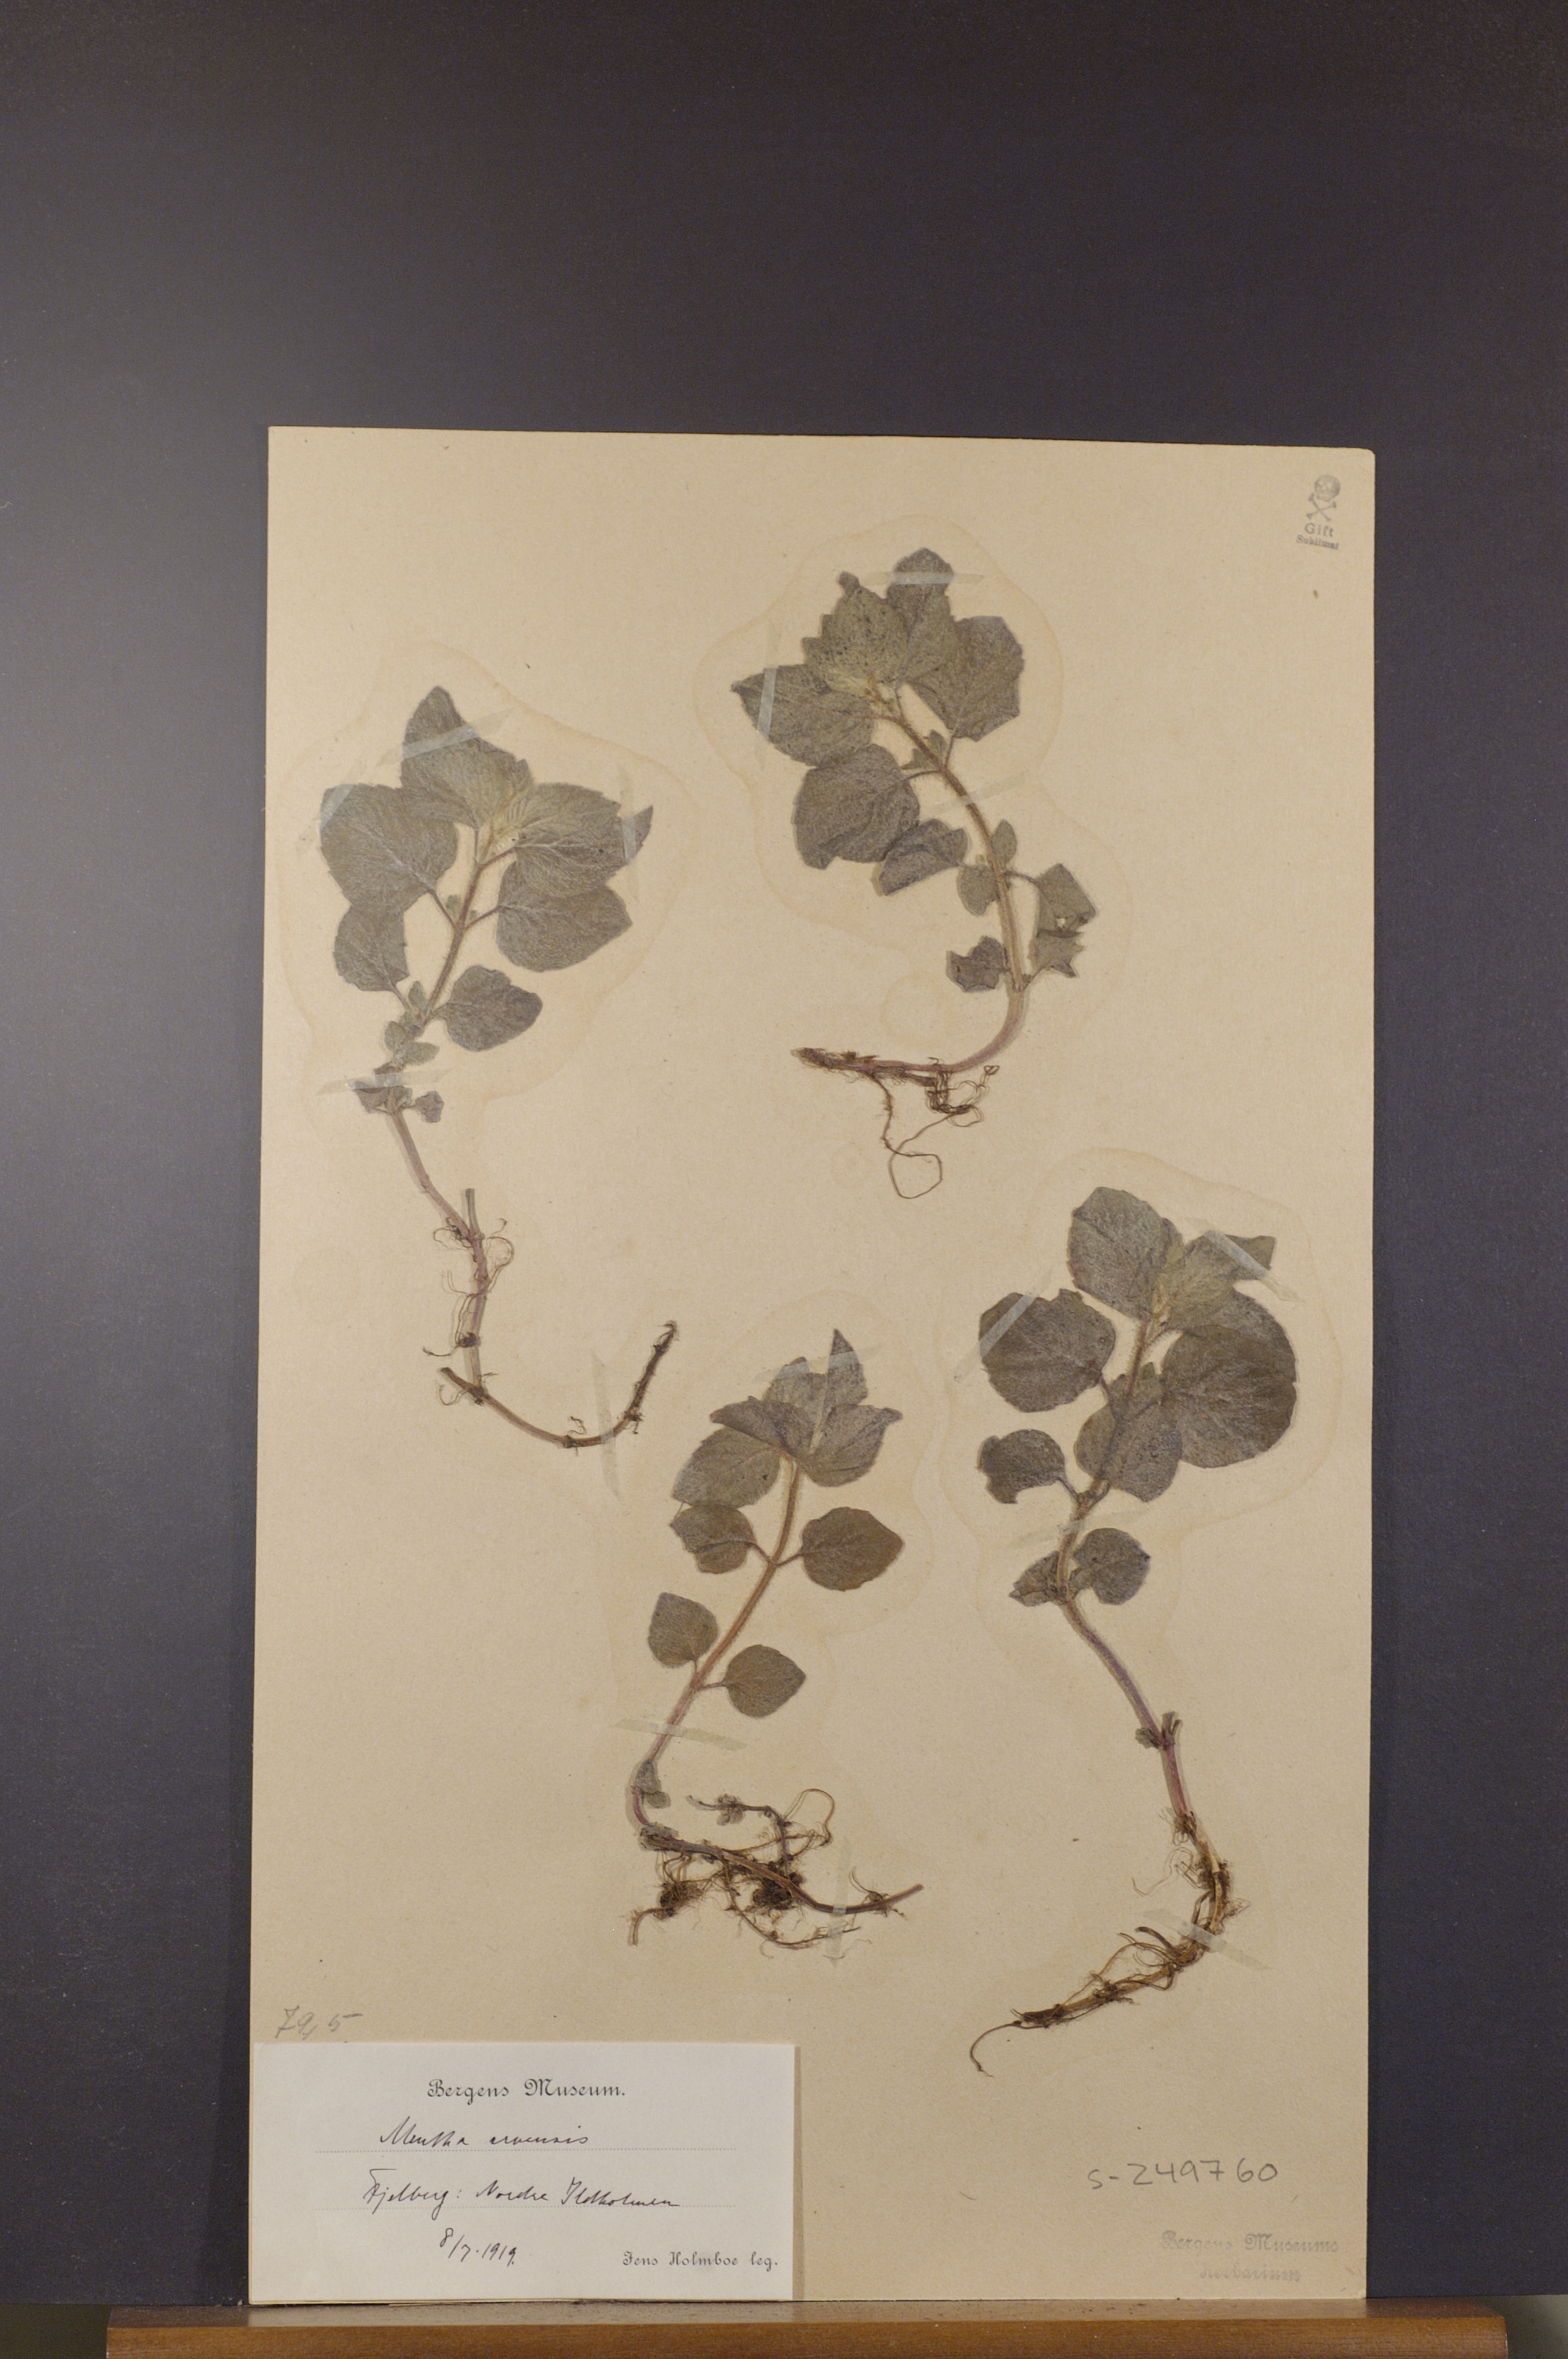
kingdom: Plantae
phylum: Tracheophyta
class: Magnoliopsida
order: Lamiales
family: Lamiaceae
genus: Mentha
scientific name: Mentha arvensis
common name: Corn mint
